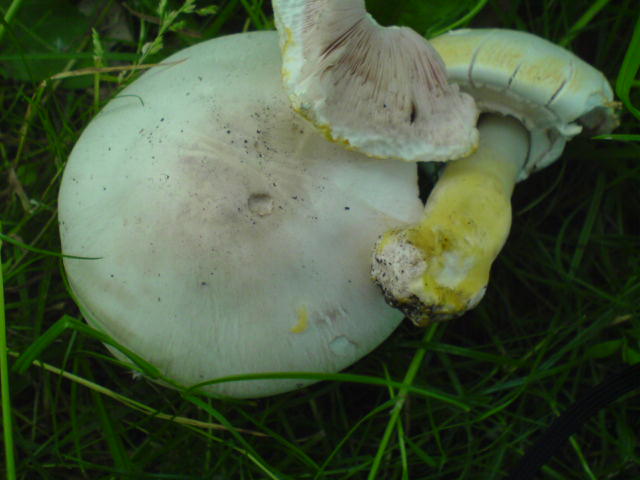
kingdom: Fungi
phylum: Basidiomycota
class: Agaricomycetes
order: Agaricales
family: Agaricaceae
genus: Agaricus
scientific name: Agaricus xanthodermus
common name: karbol-champignon
